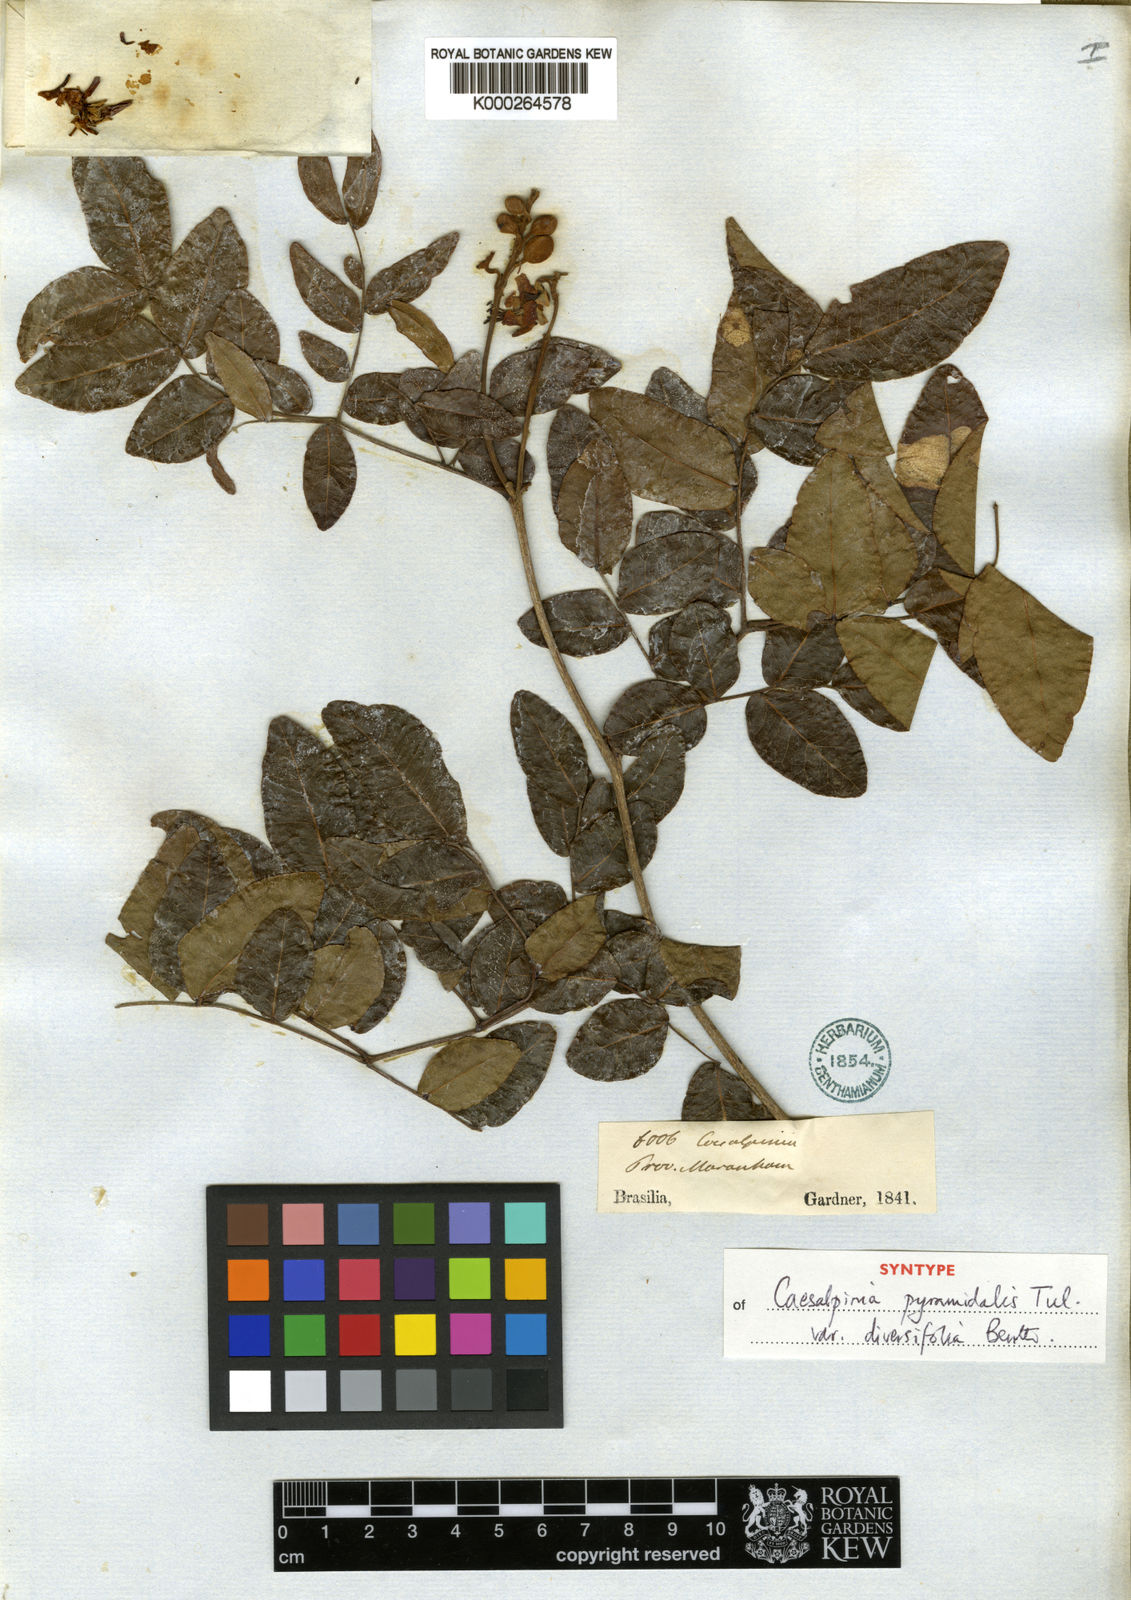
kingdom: Plantae
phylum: Tracheophyta
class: Magnoliopsida
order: Fabales
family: Fabaceae
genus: Cenostigma
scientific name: Cenostigma diversifolium
